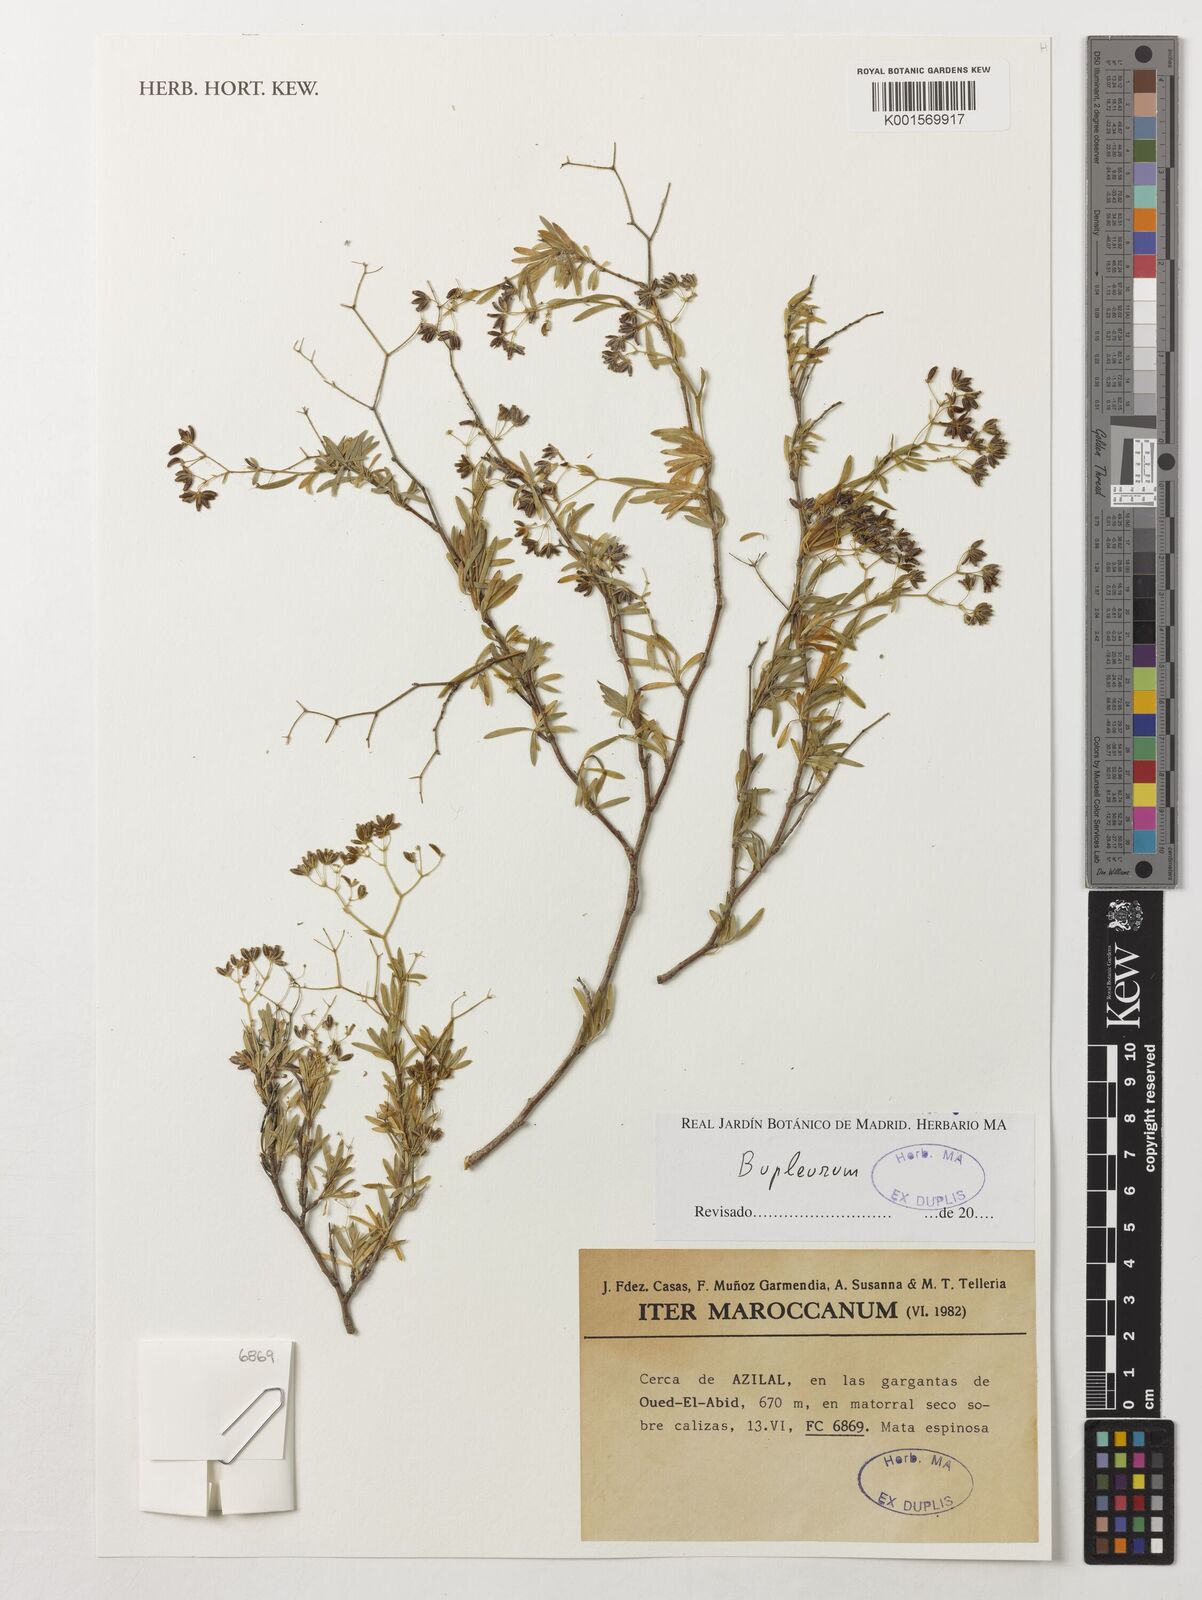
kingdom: Plantae
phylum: Tracheophyta
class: Magnoliopsida
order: Apiales
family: Apiaceae
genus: Bupleurum
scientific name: Bupleurum
